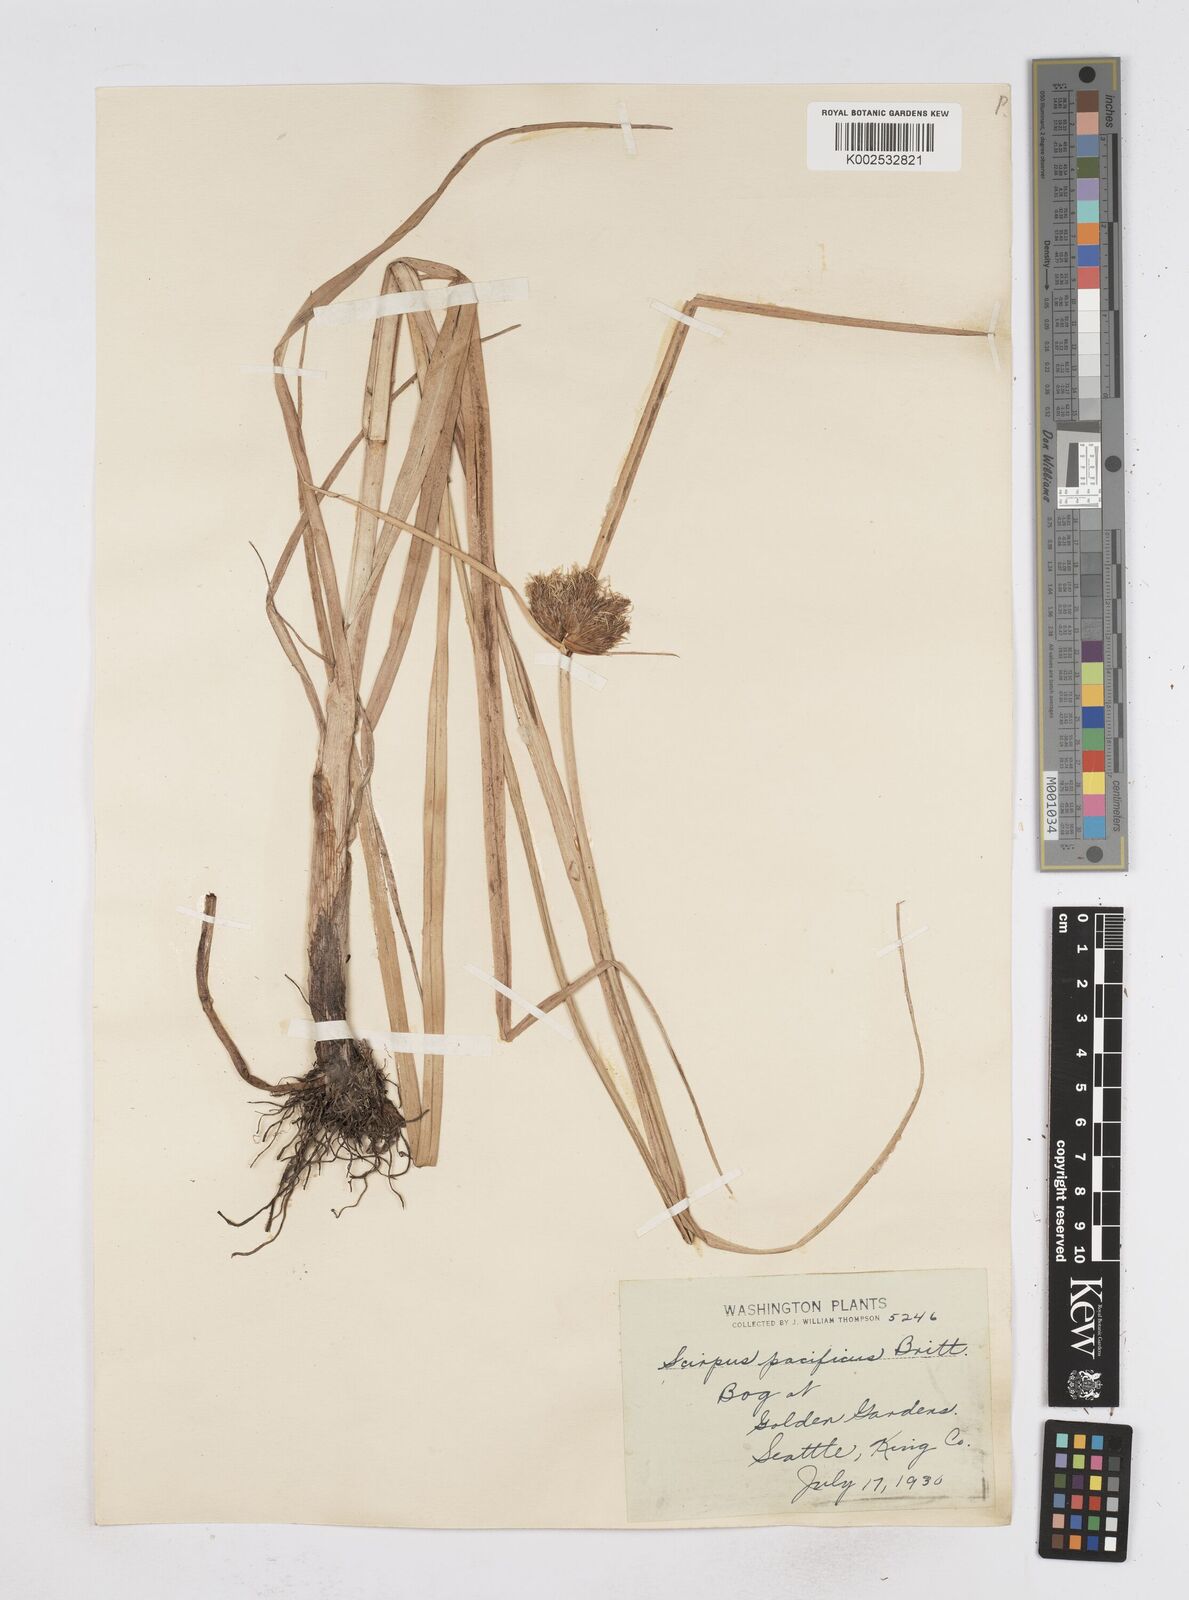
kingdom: Plantae
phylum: Tracheophyta
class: Liliopsida
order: Poales
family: Cyperaceae
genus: Bolboschoenus
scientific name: Bolboschoenus maritimus
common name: Sea club-rush
